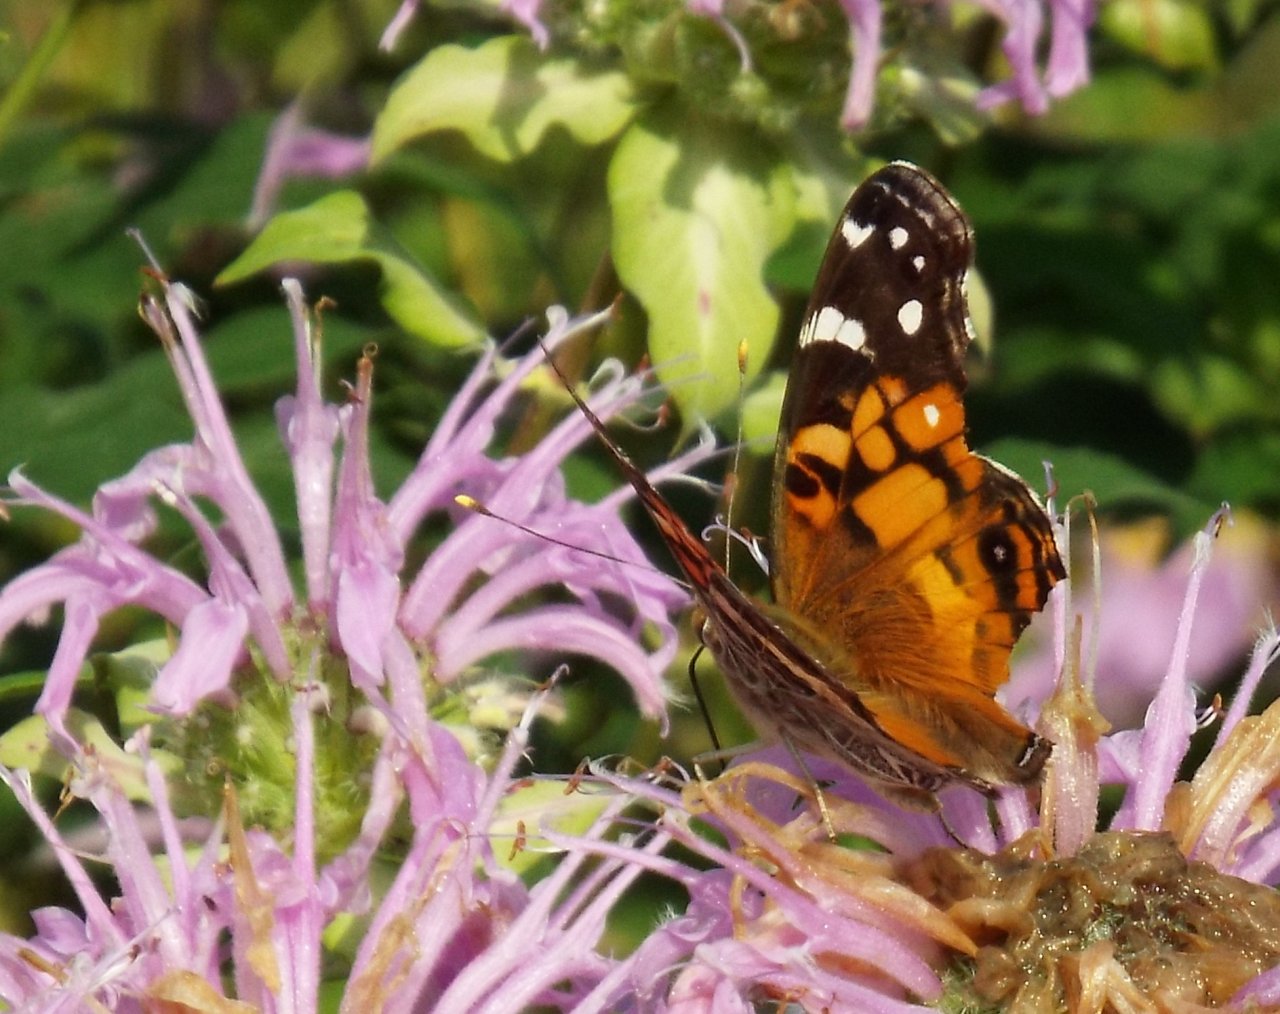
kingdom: Animalia
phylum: Arthropoda
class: Insecta
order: Lepidoptera
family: Nymphalidae
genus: Vanessa
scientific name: Vanessa virginiensis
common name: American Lady
